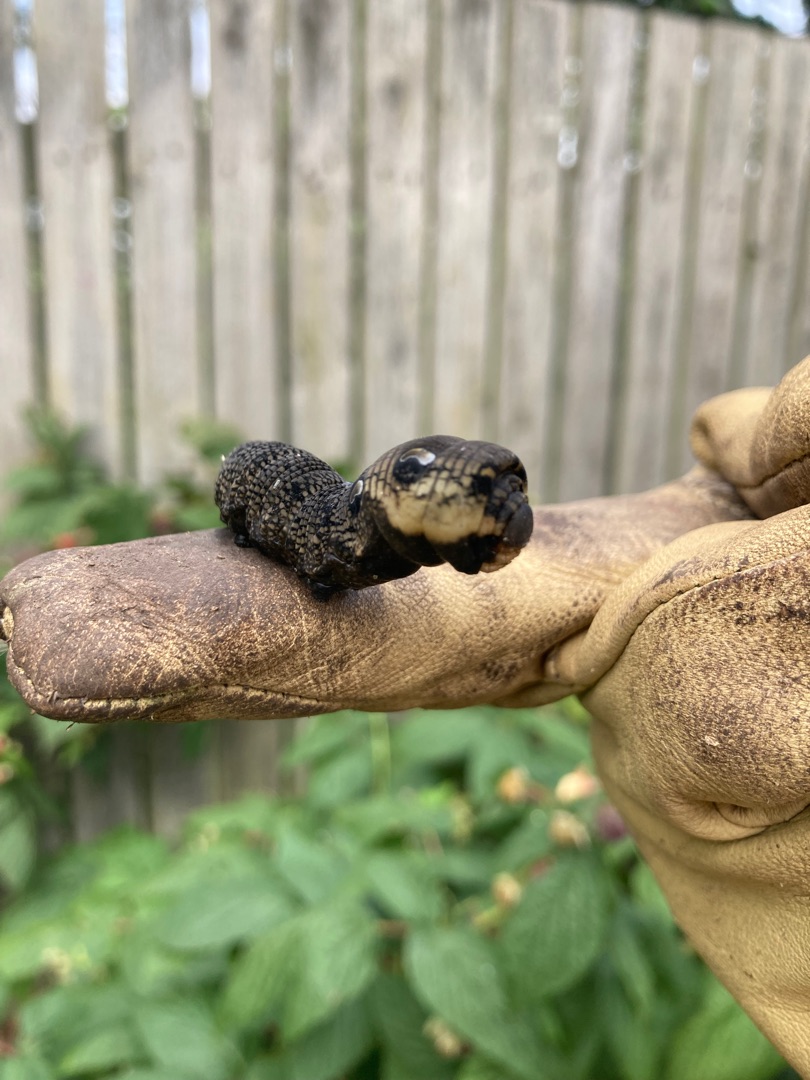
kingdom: Animalia
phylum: Arthropoda
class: Insecta
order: Lepidoptera
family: Sphingidae
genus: Deilephila
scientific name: Deilephila elpenor
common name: Dueurtsværmer
